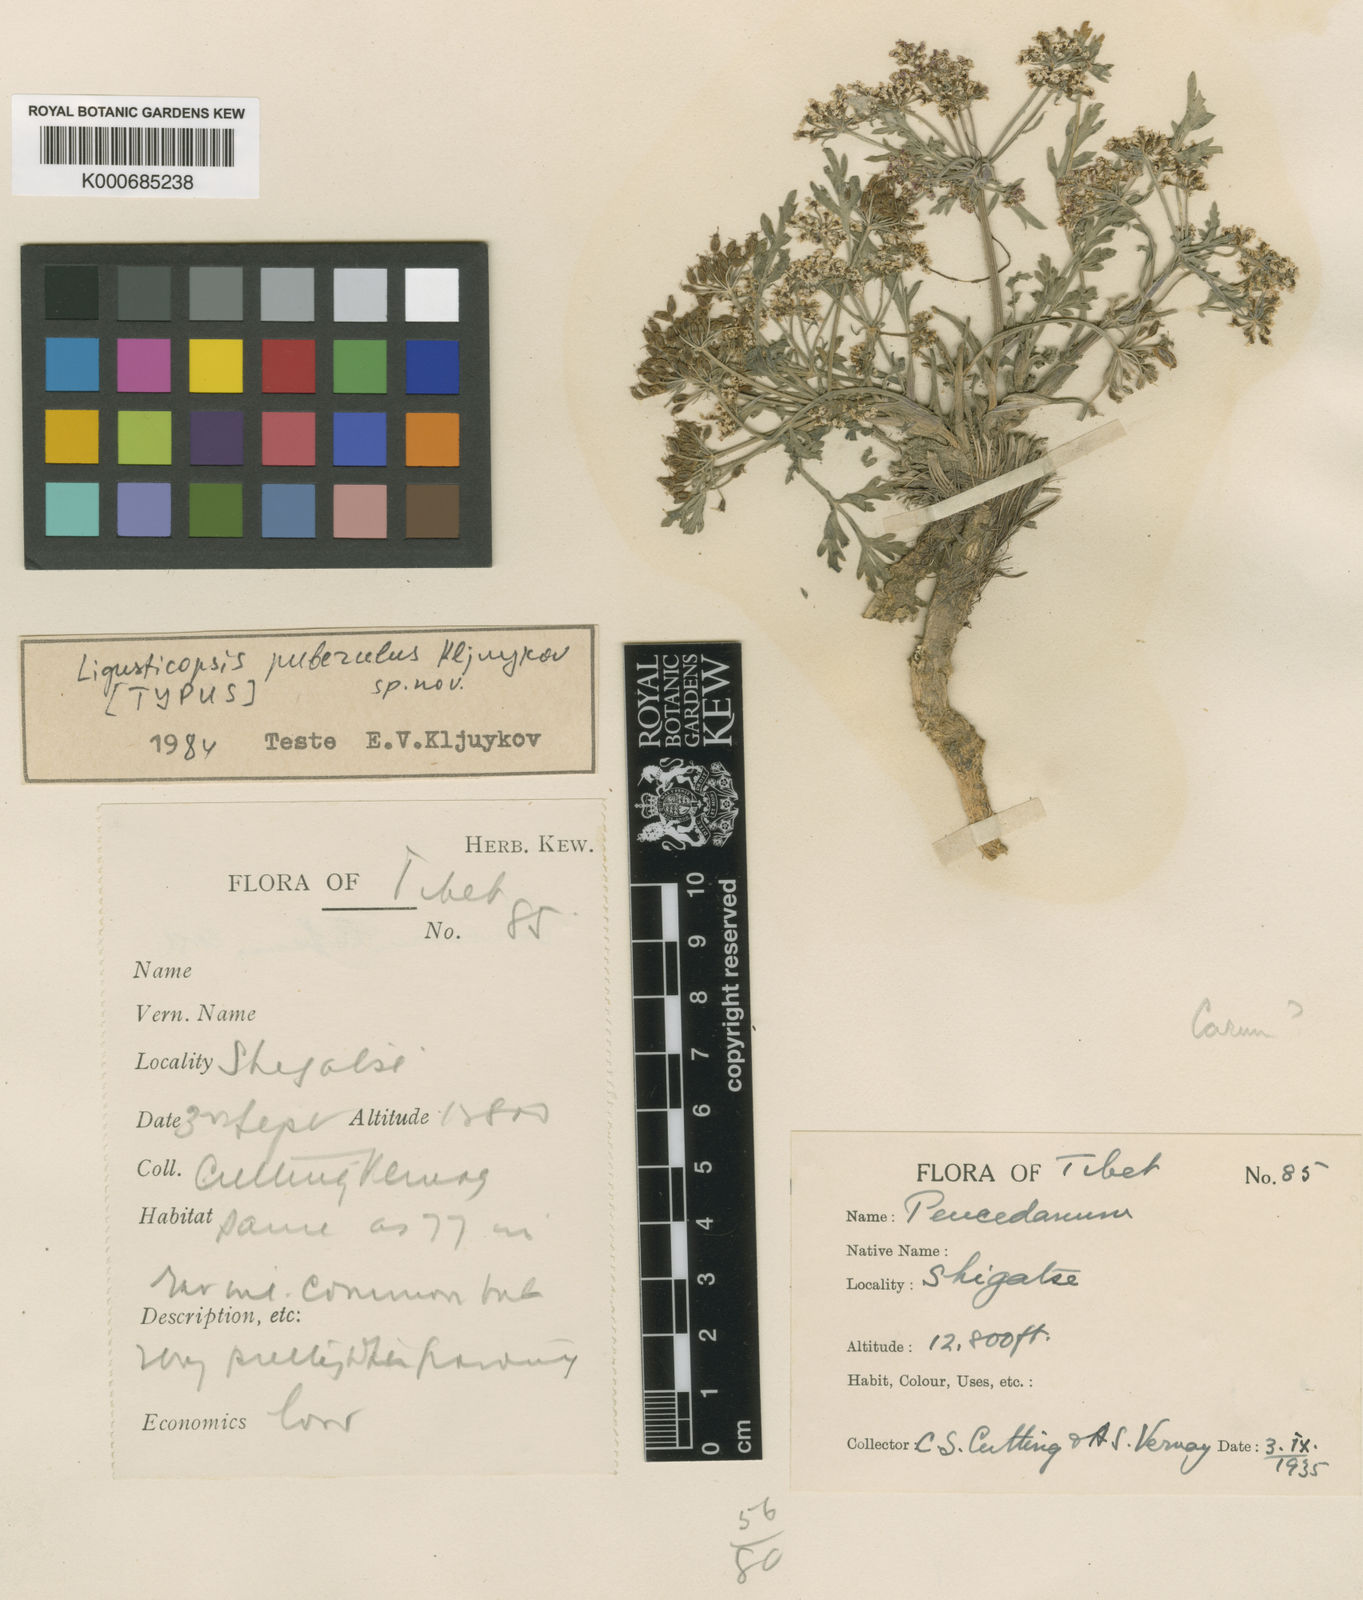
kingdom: Plantae
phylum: Tracheophyta
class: Magnoliopsida
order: Apiales
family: Apiaceae
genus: Ligusticopsis
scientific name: Ligusticopsis
